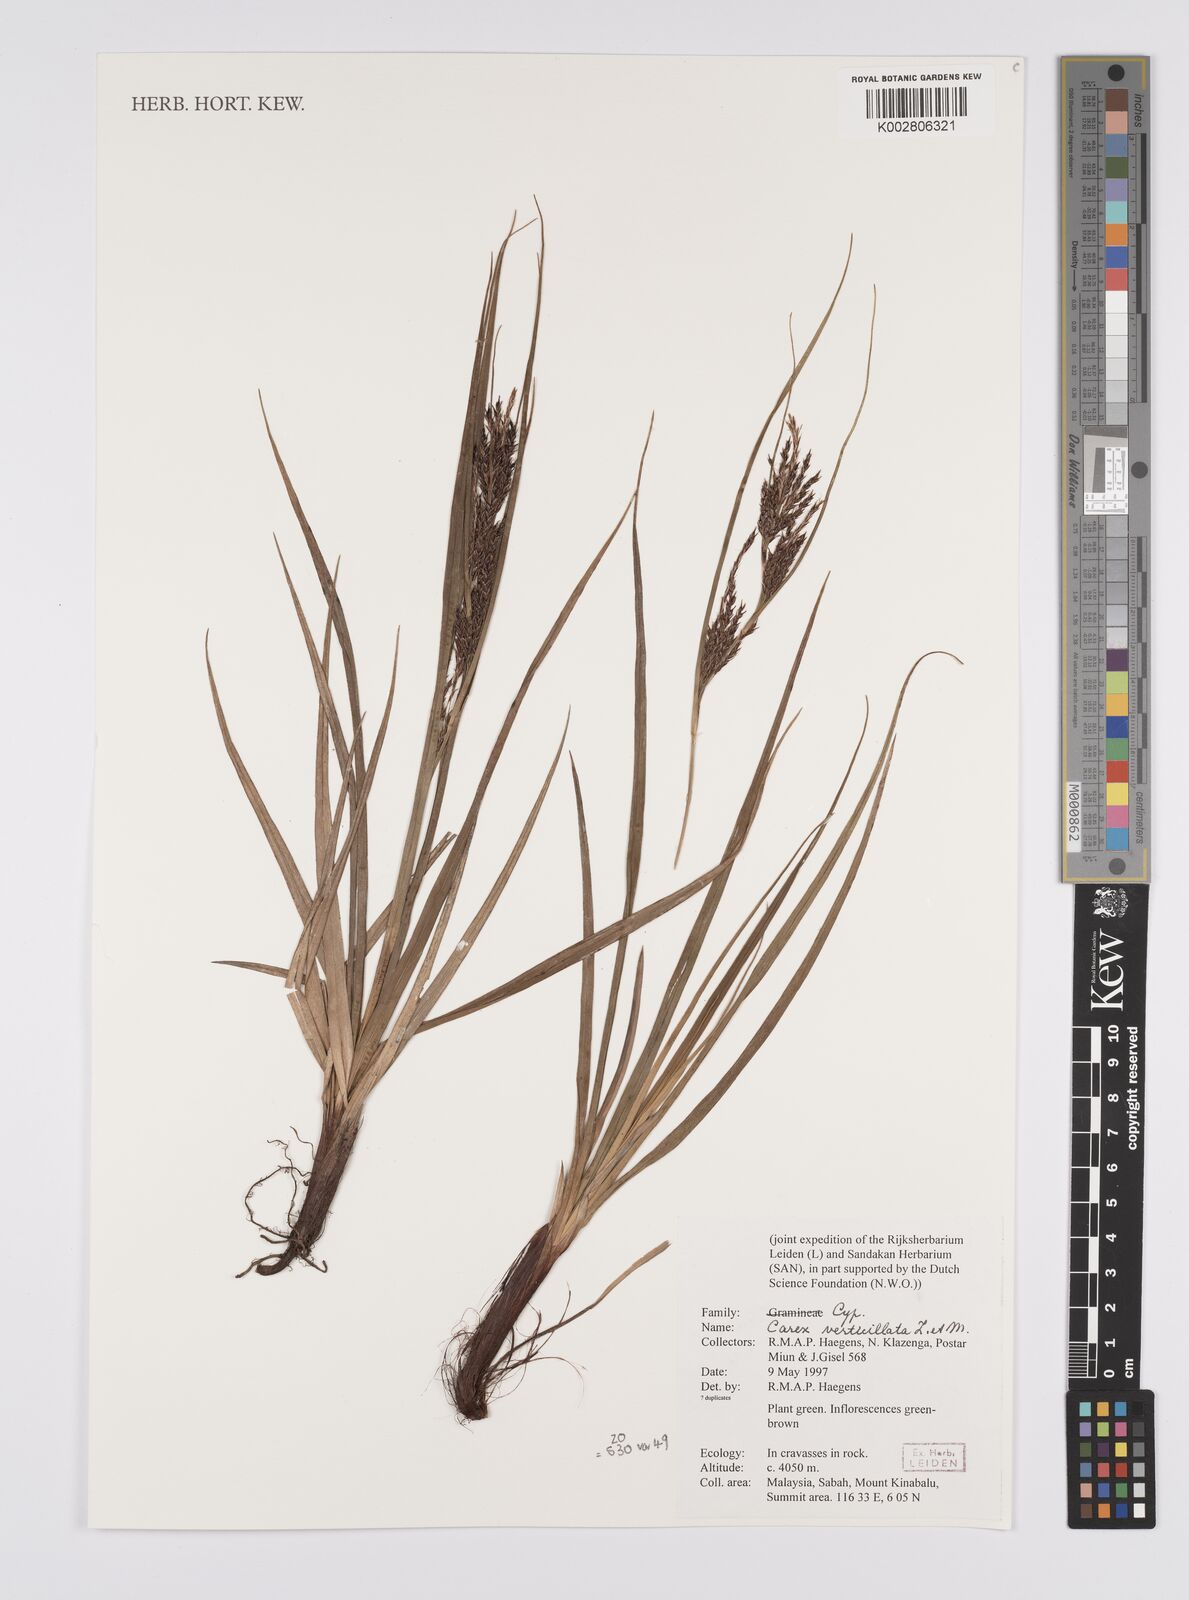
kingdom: Plantae
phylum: Tracheophyta
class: Liliopsida
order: Poales
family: Cyperaceae
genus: Carex
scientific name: Carex verticillata
